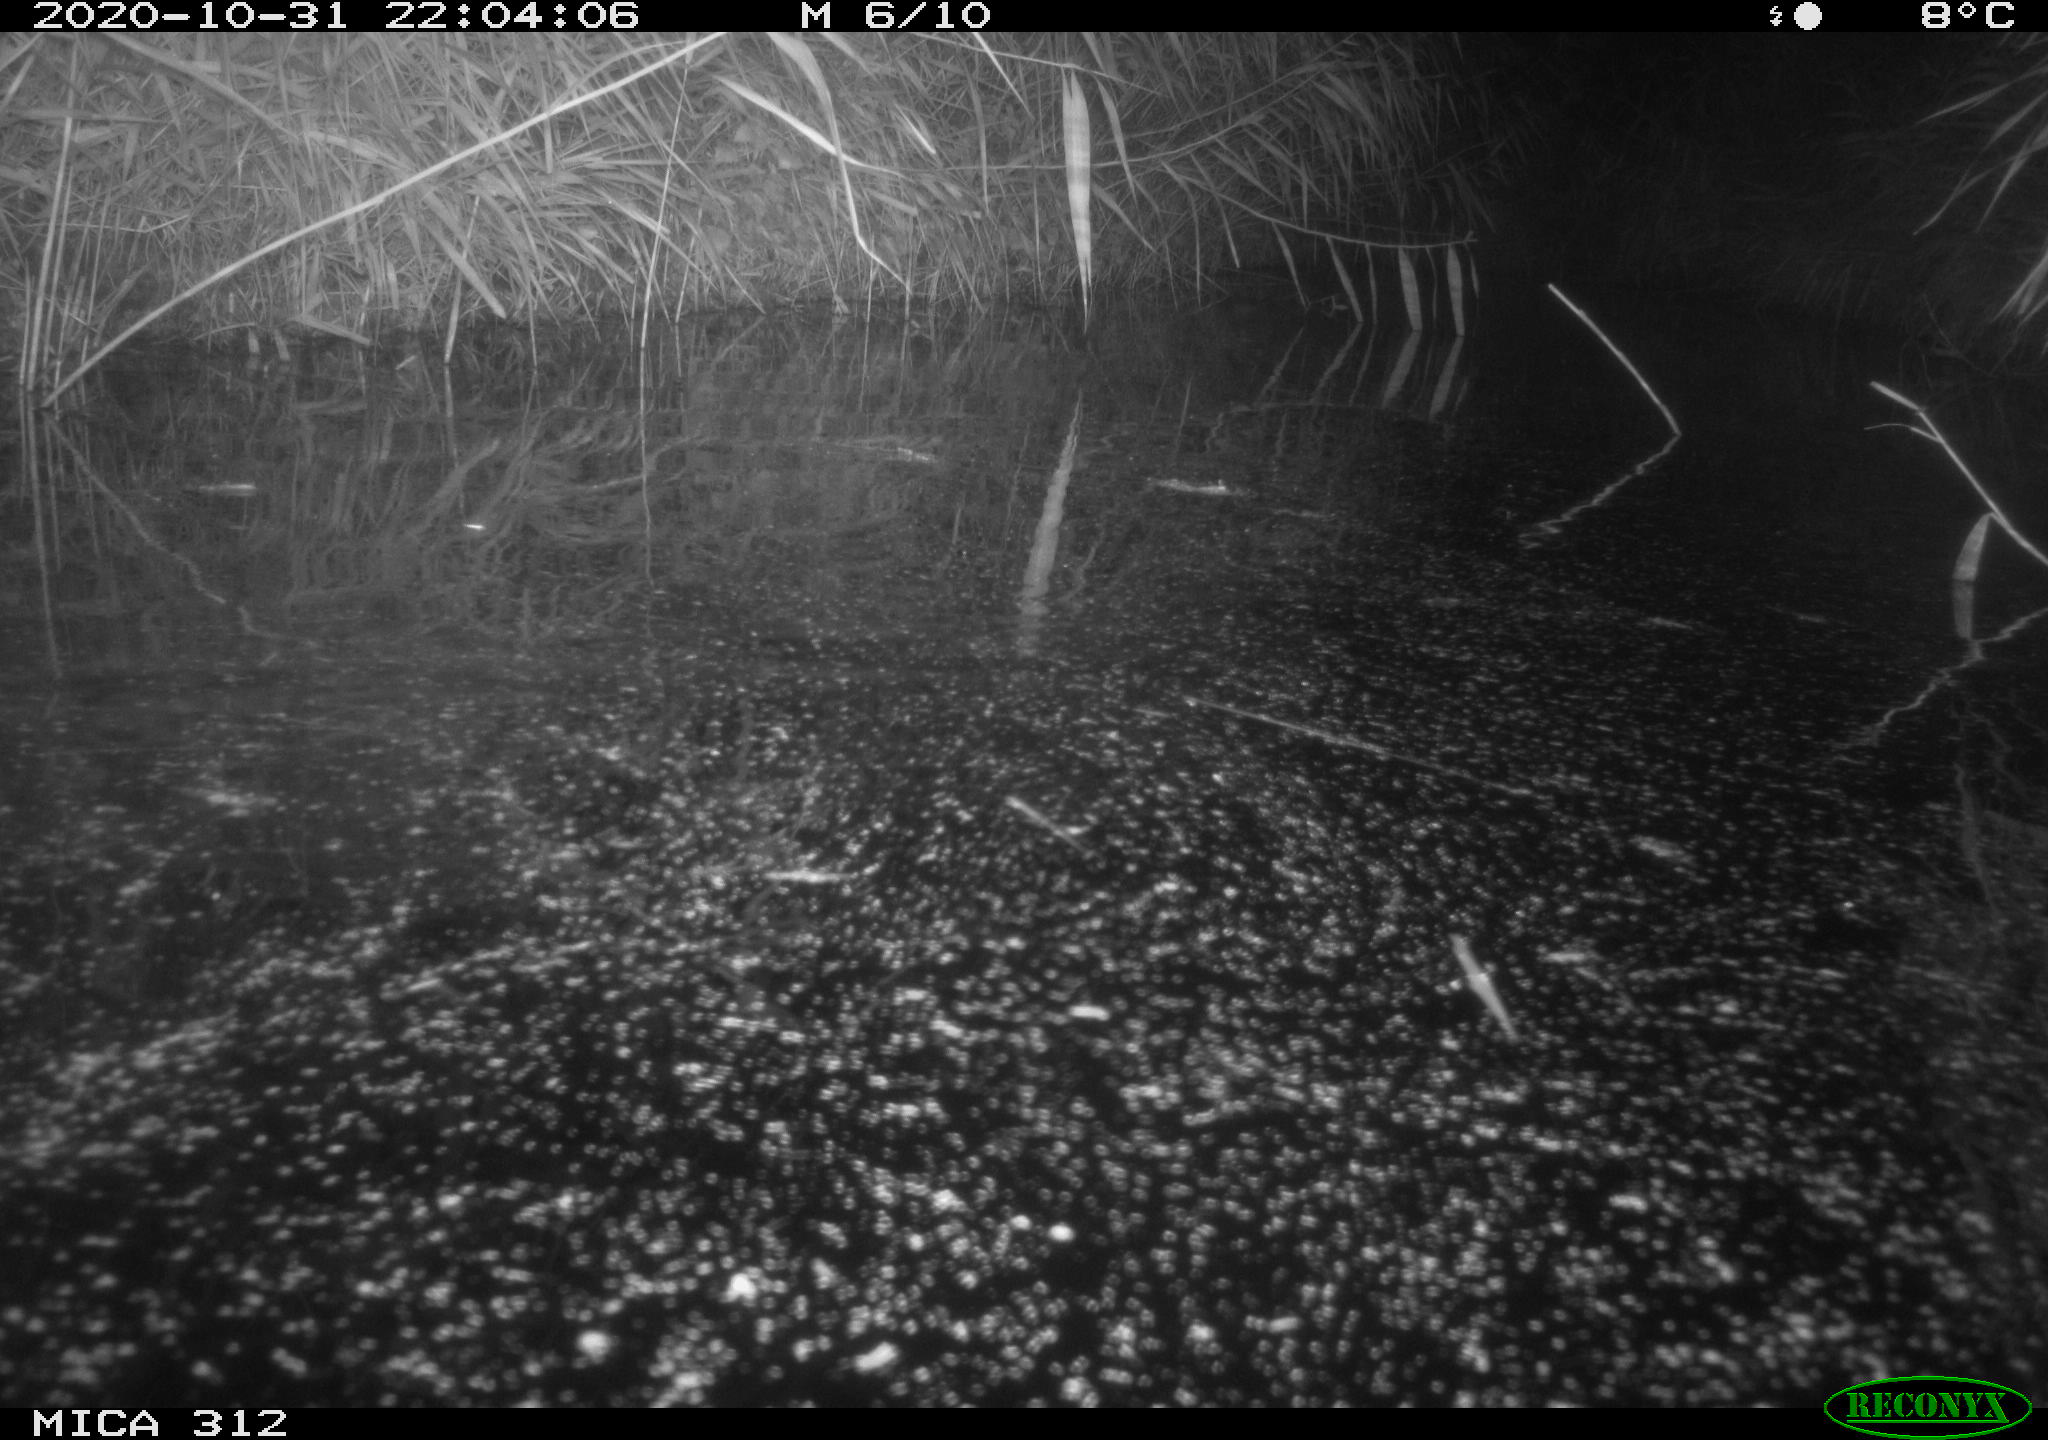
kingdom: Animalia
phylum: Chordata
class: Mammalia
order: Rodentia
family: Muridae
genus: Rattus
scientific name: Rattus norvegicus
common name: Brown rat
